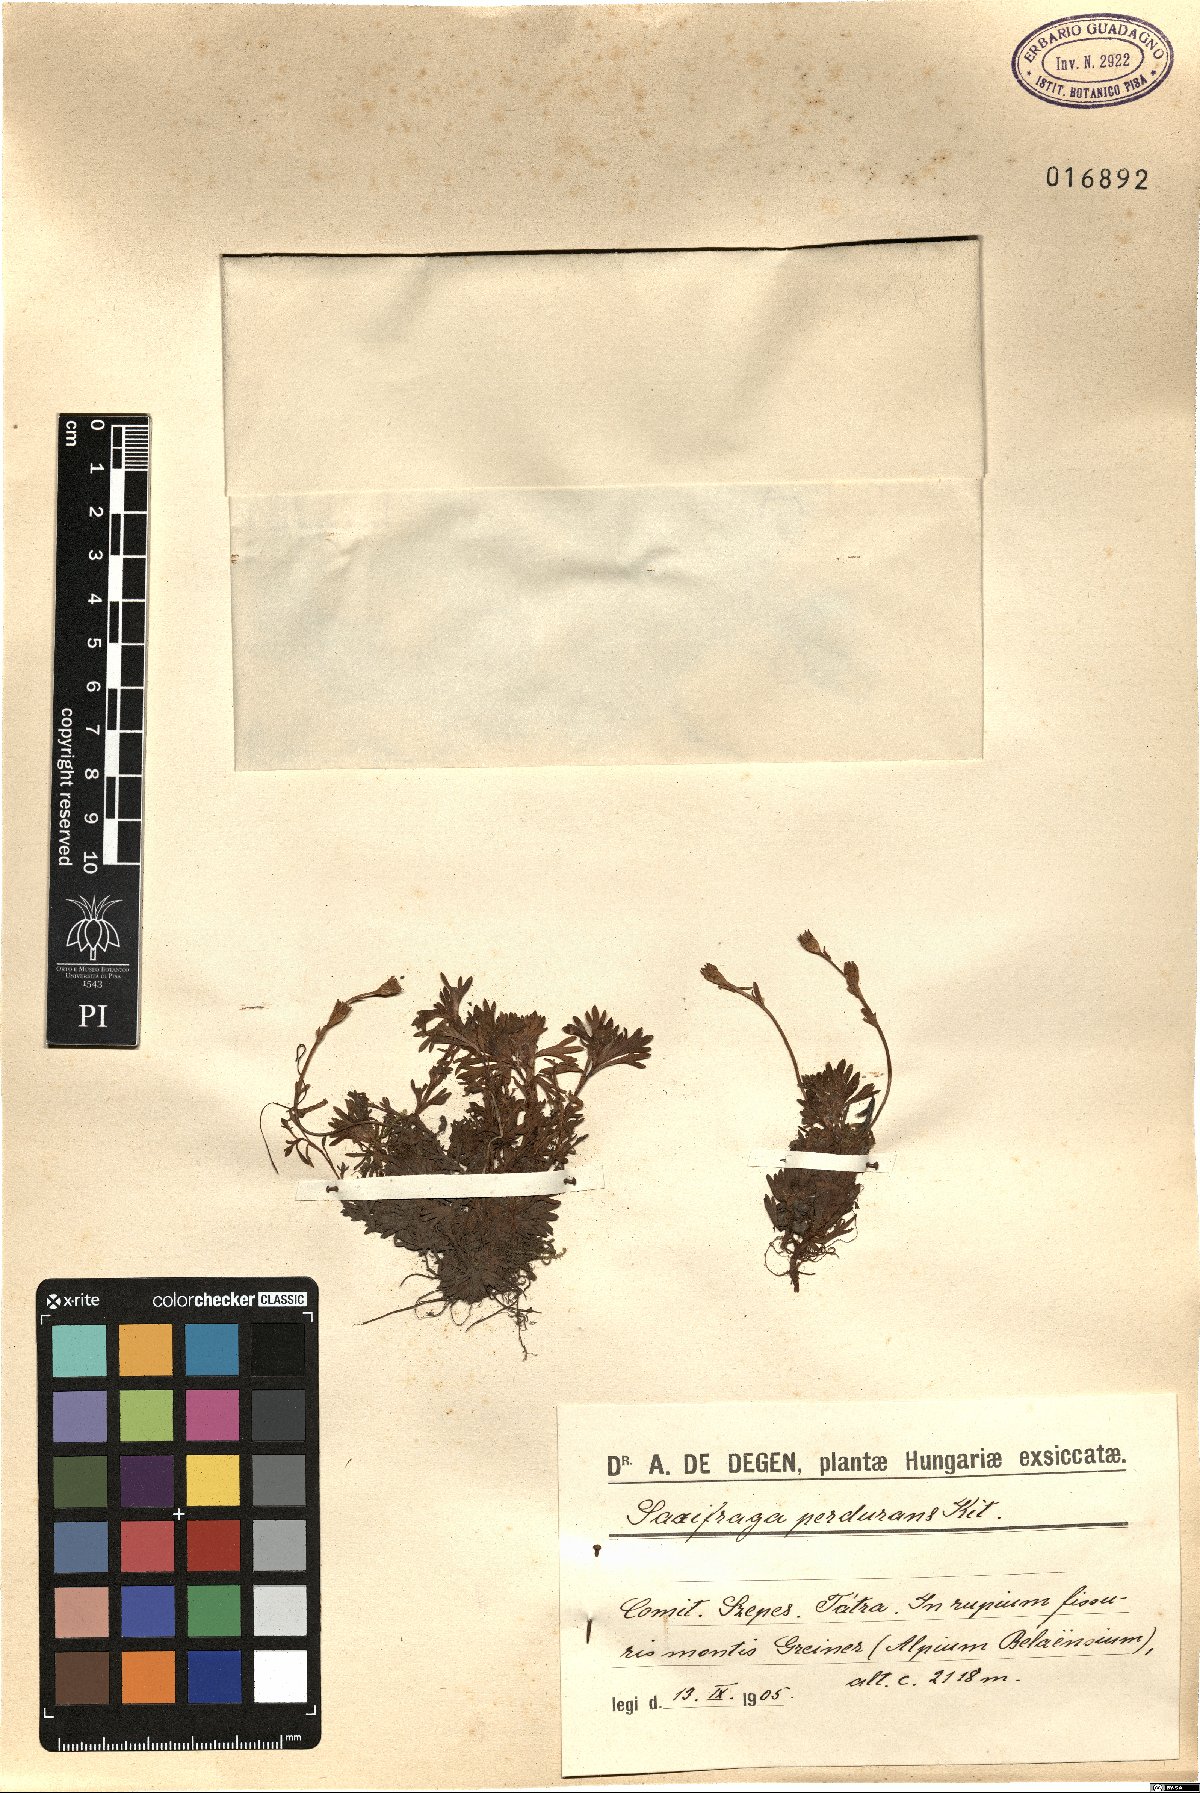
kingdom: Plantae
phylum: Tracheophyta
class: Magnoliopsida
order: Saxifragales
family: Saxifragaceae
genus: Saxifraga
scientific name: Saxifraga wahlenbergii
